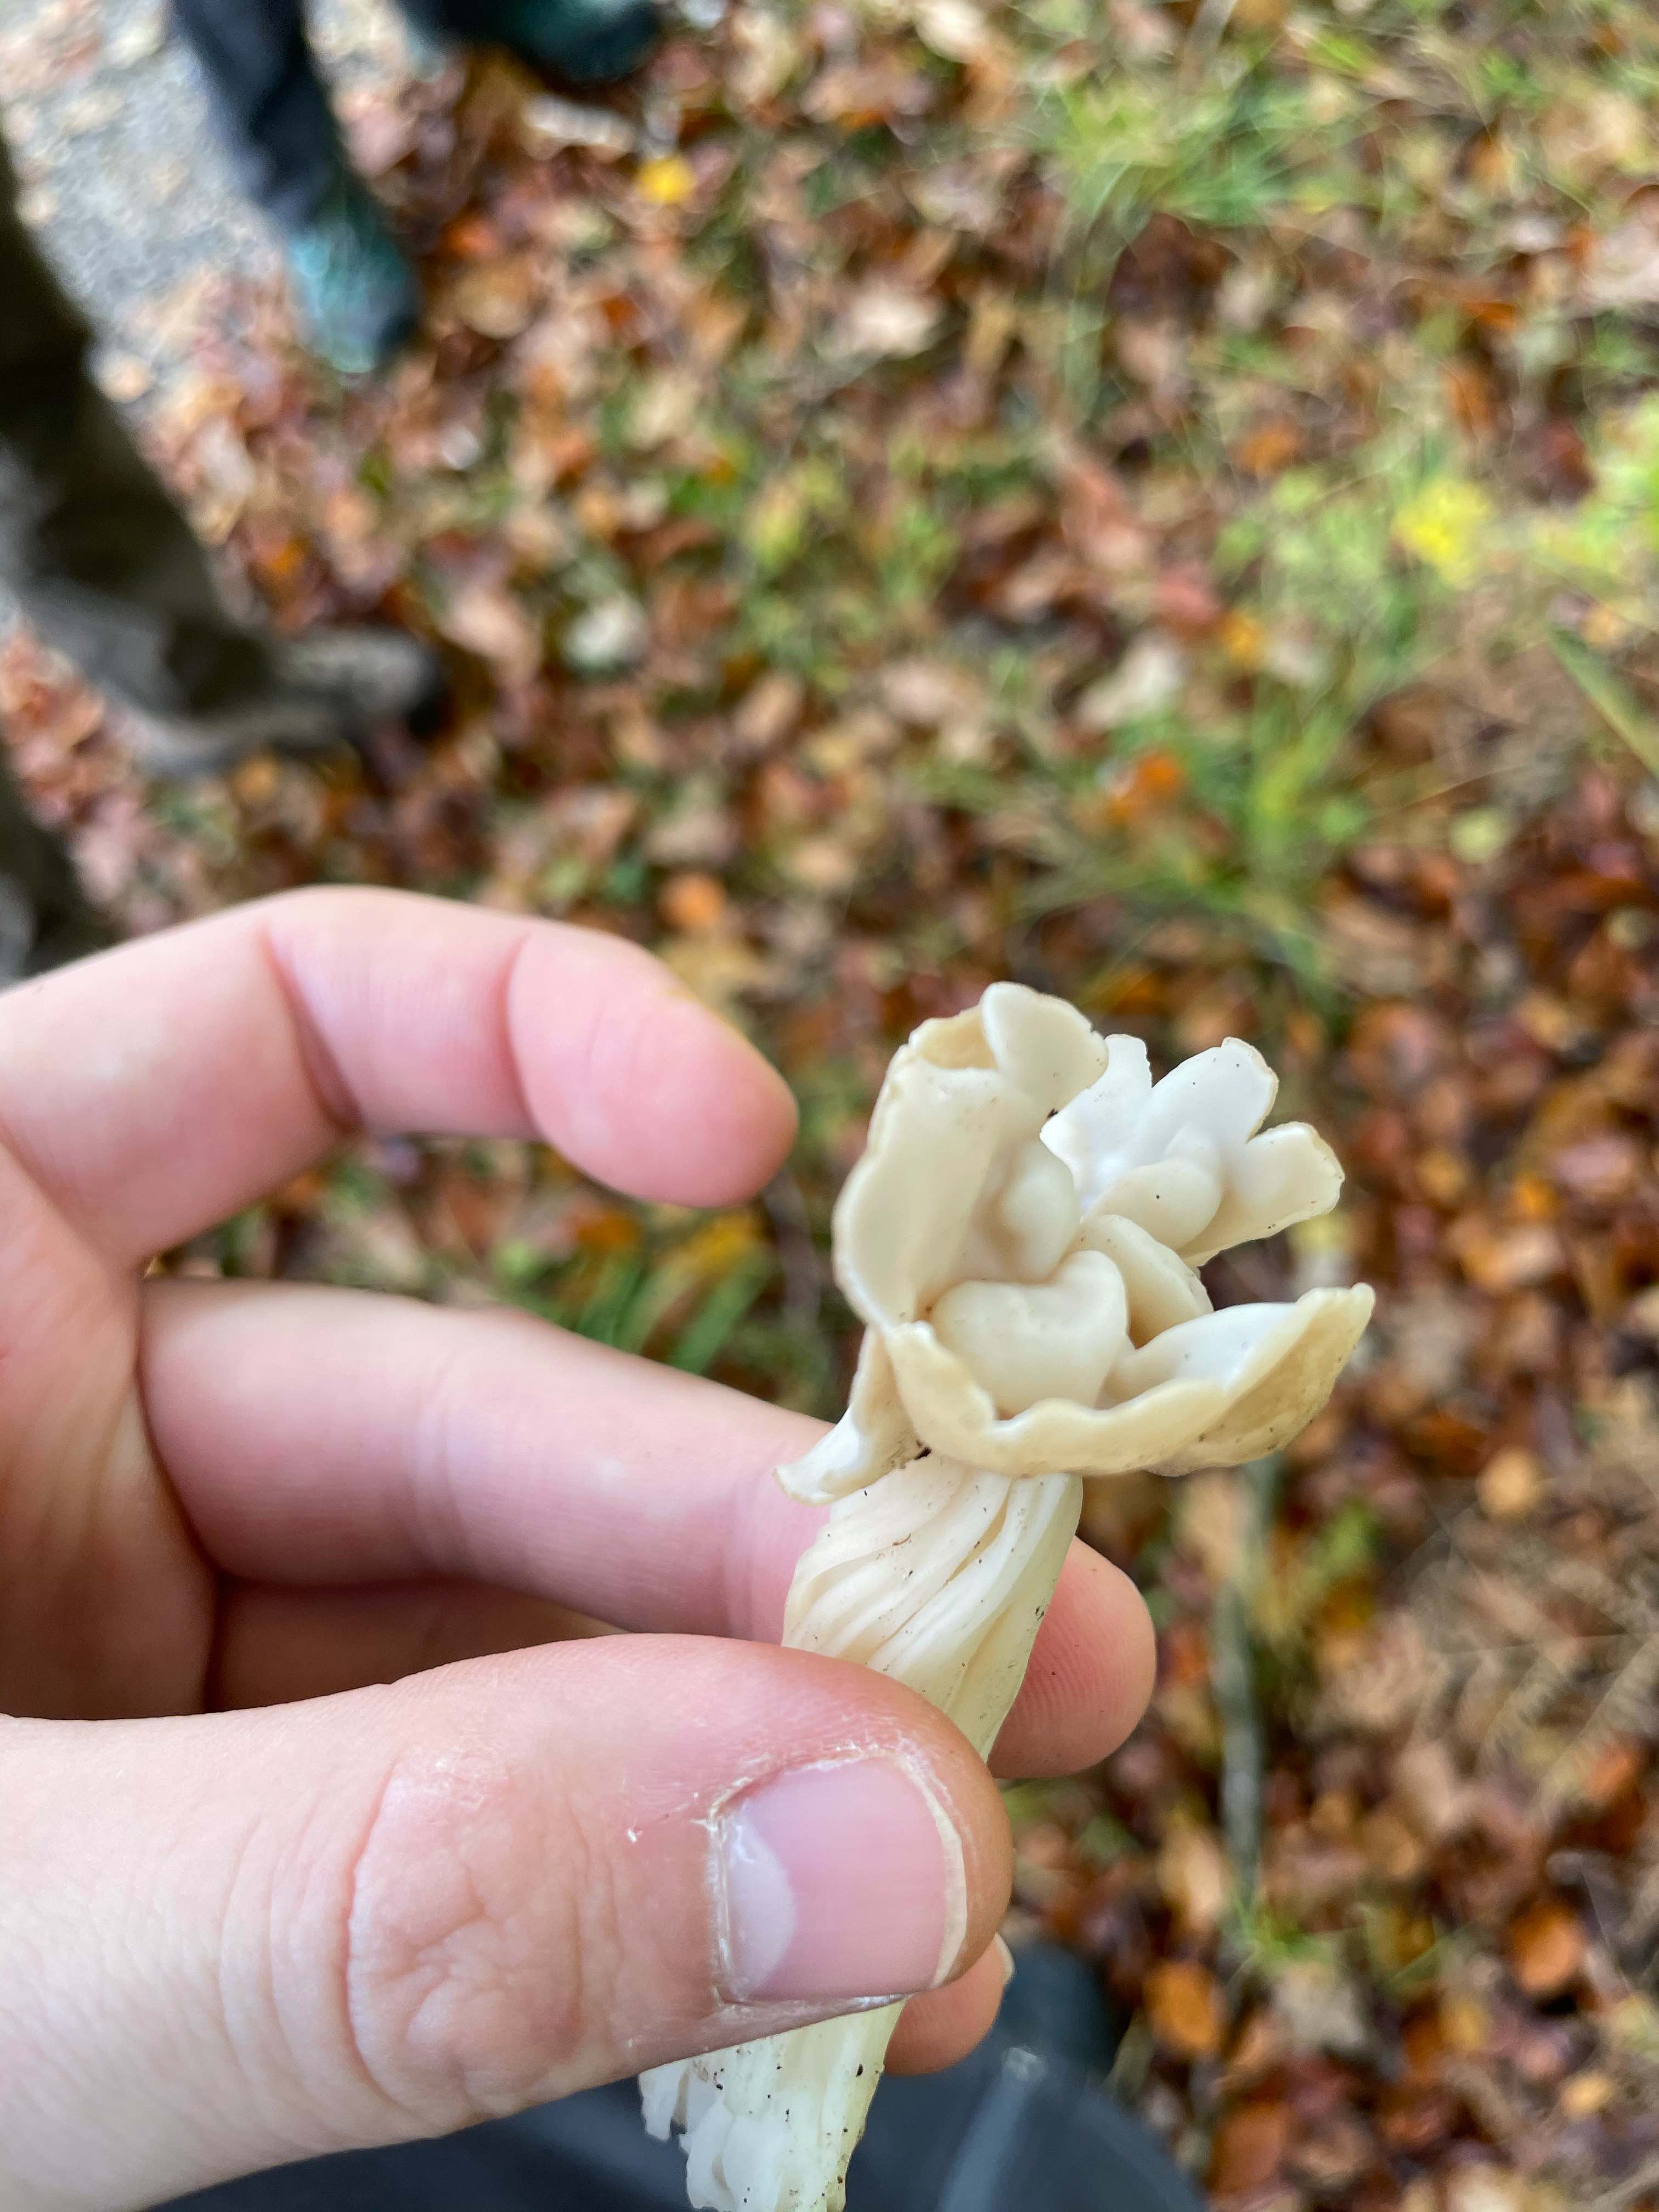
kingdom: Fungi
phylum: Ascomycota
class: Pezizomycetes
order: Pezizales
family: Helvellaceae
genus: Helvella
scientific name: Helvella crispa
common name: kruset foldhat
